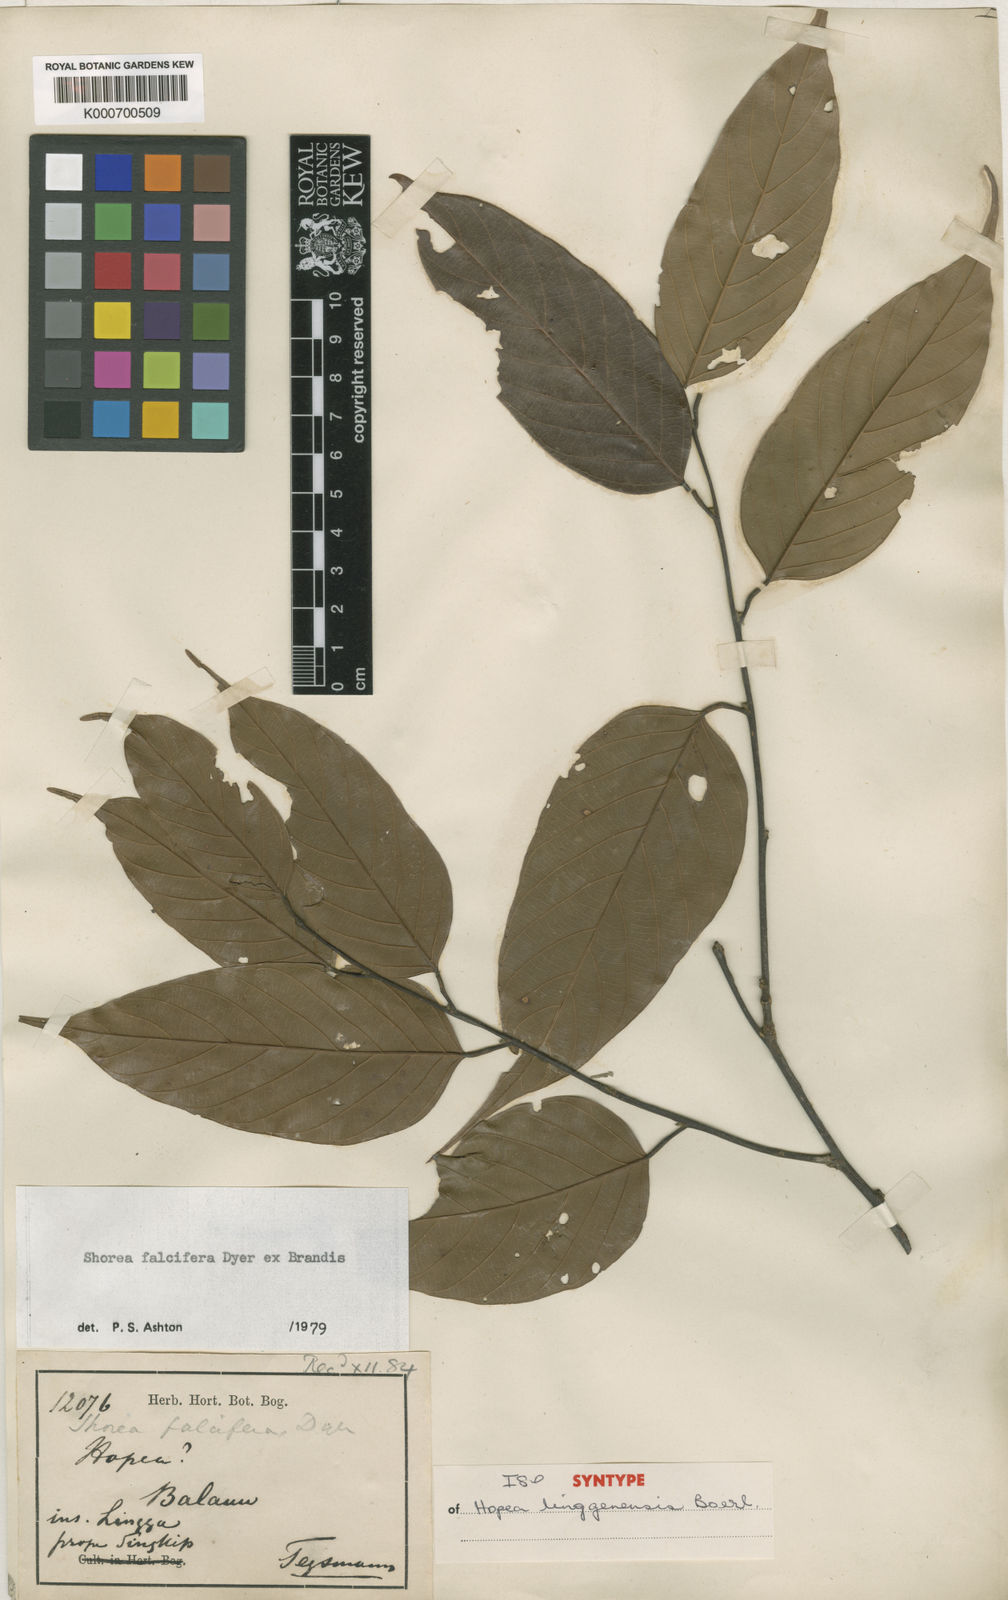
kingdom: Plantae
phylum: Tracheophyta
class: Magnoliopsida
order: Malvales
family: Dipterocarpaceae
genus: Shorea
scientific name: Shorea falcifera
